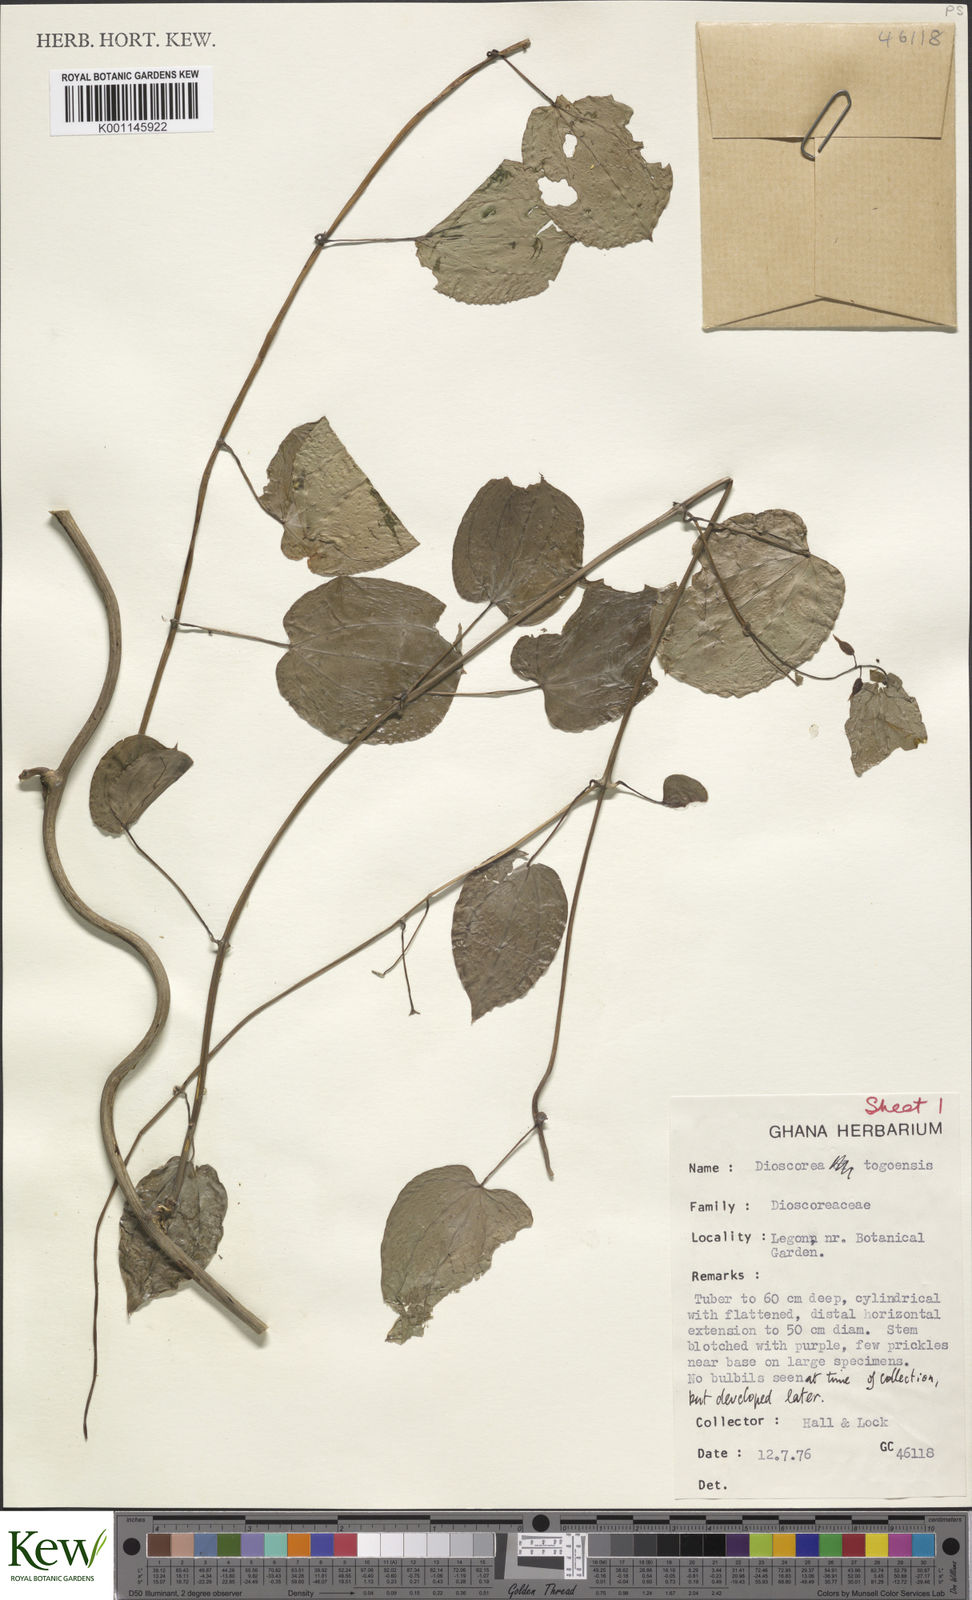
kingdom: Plantae
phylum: Tracheophyta
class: Liliopsida
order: Dioscoreales
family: Dioscoreaceae
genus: Dioscorea
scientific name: Dioscorea togoensis
